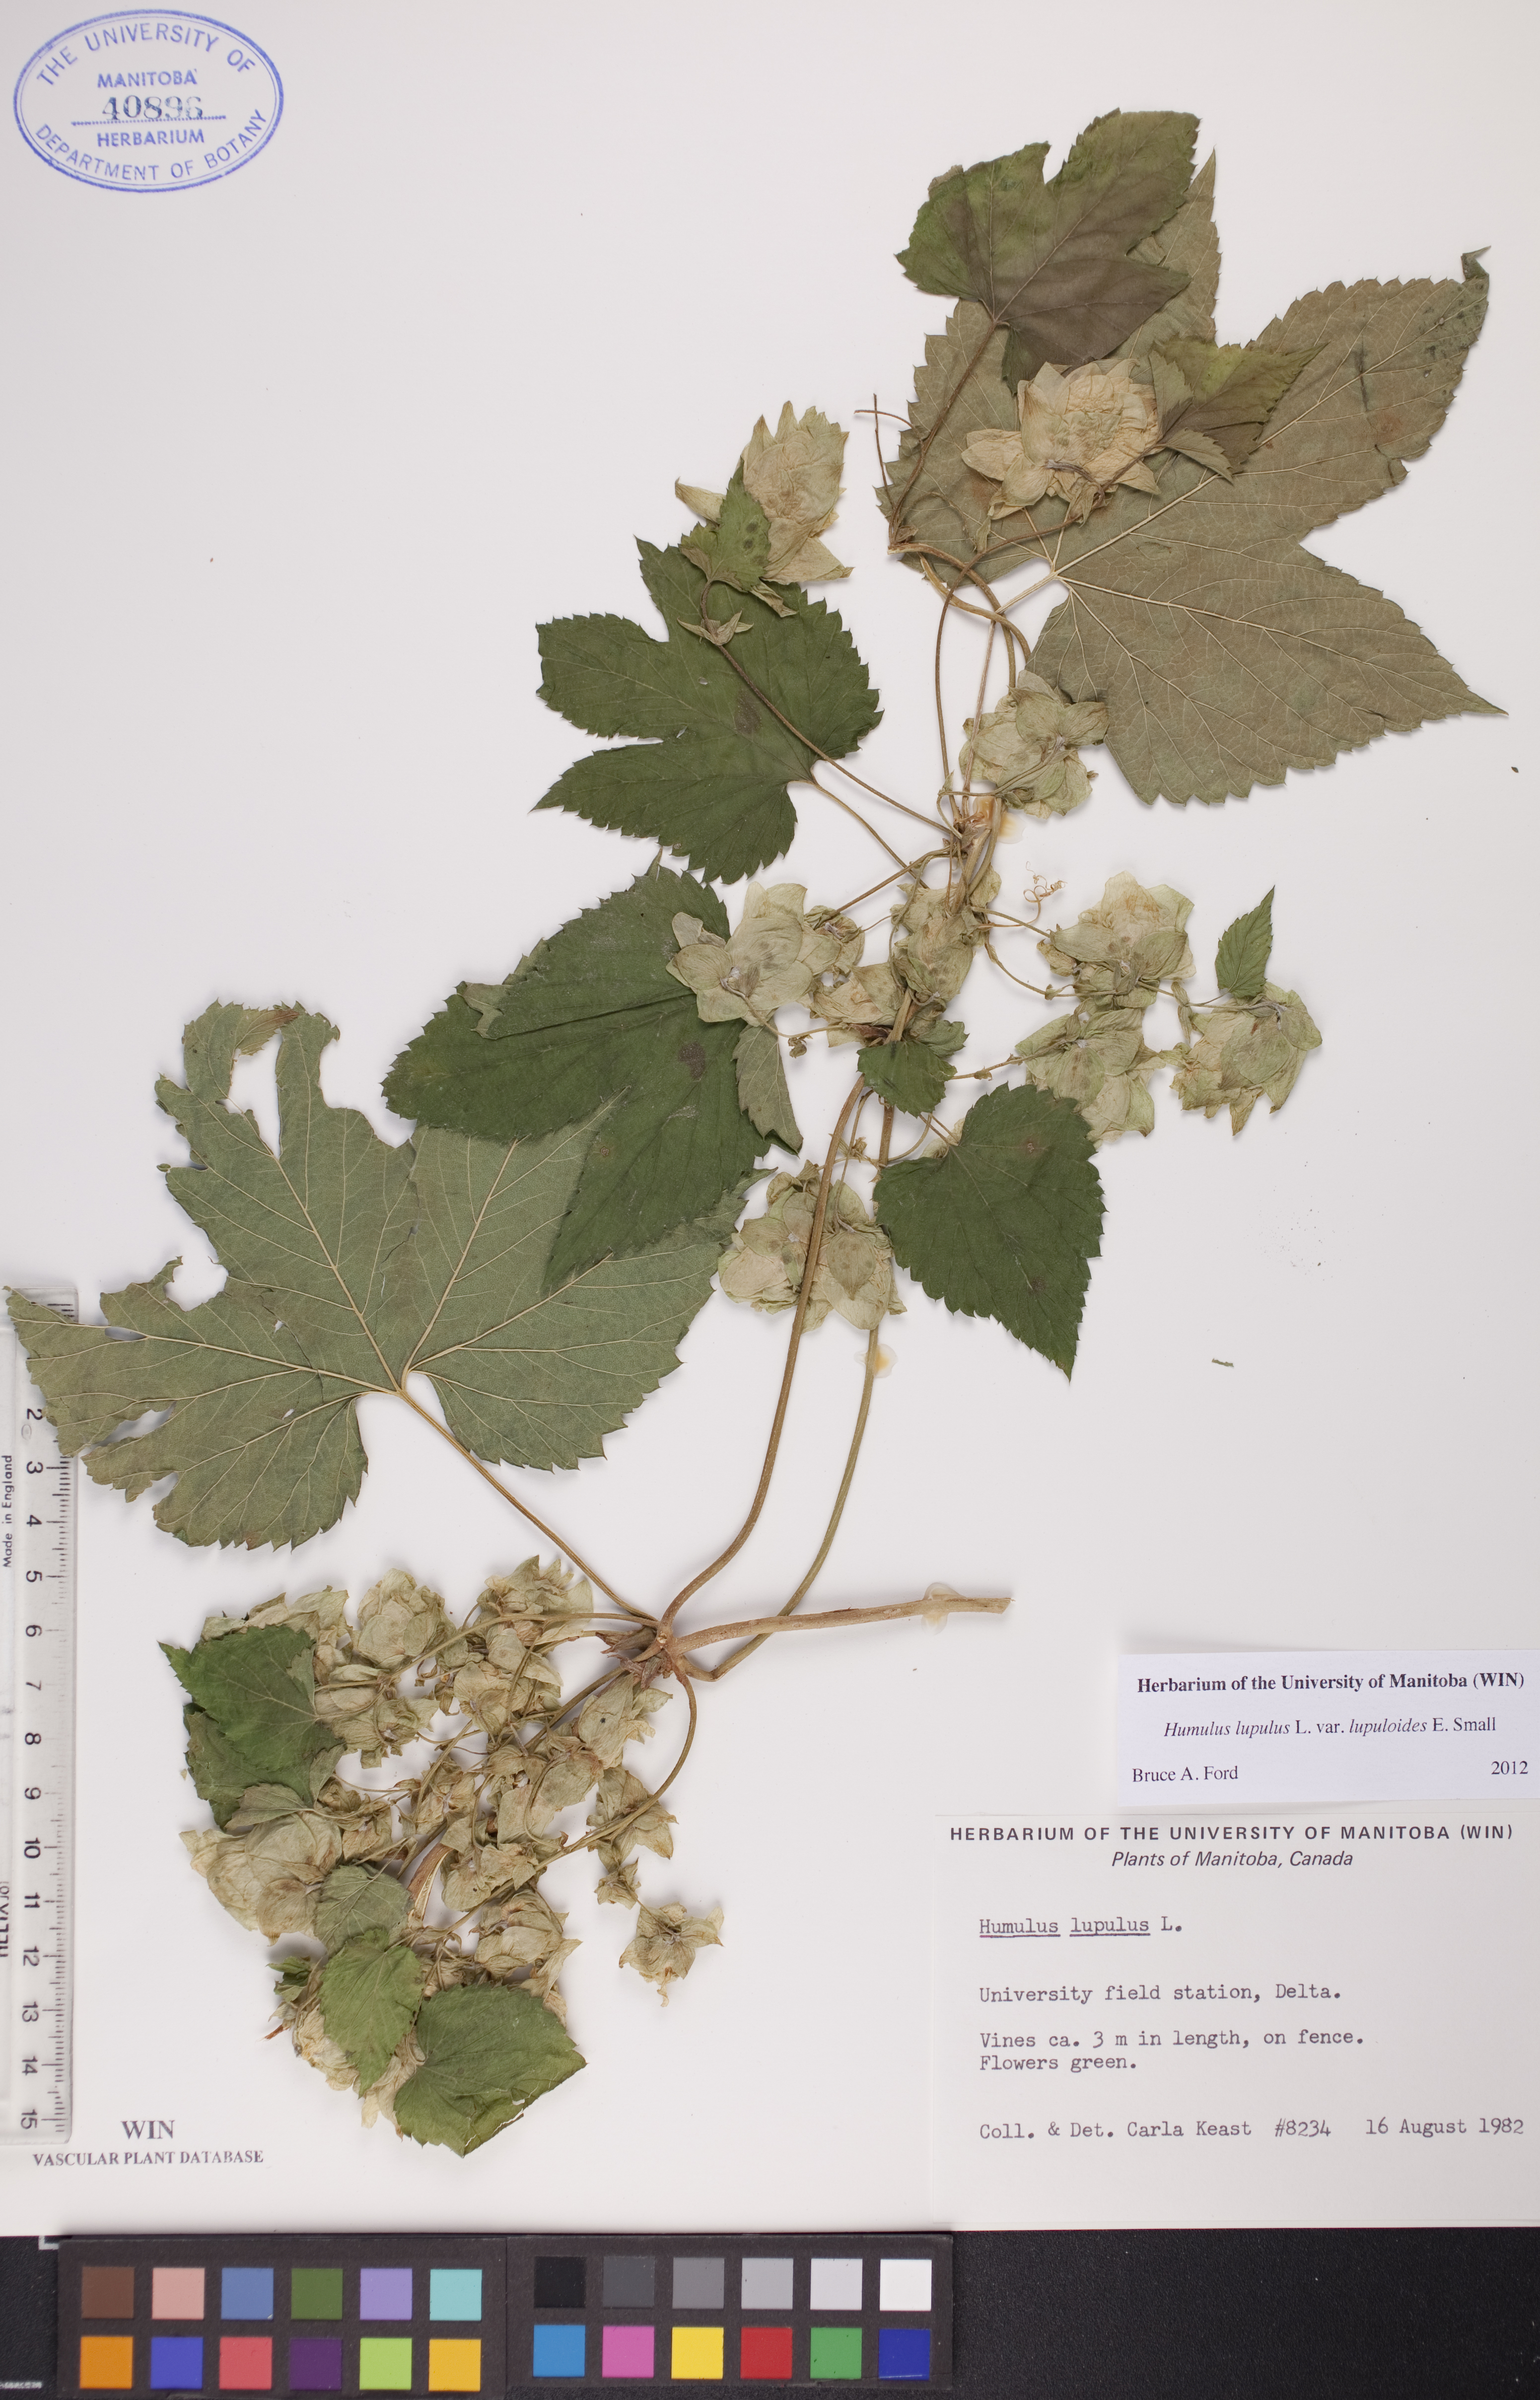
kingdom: Plantae
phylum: Tracheophyta
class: Magnoliopsida
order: Rosales
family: Cannabaceae
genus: Humulus
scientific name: Humulus americanus
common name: American hops
